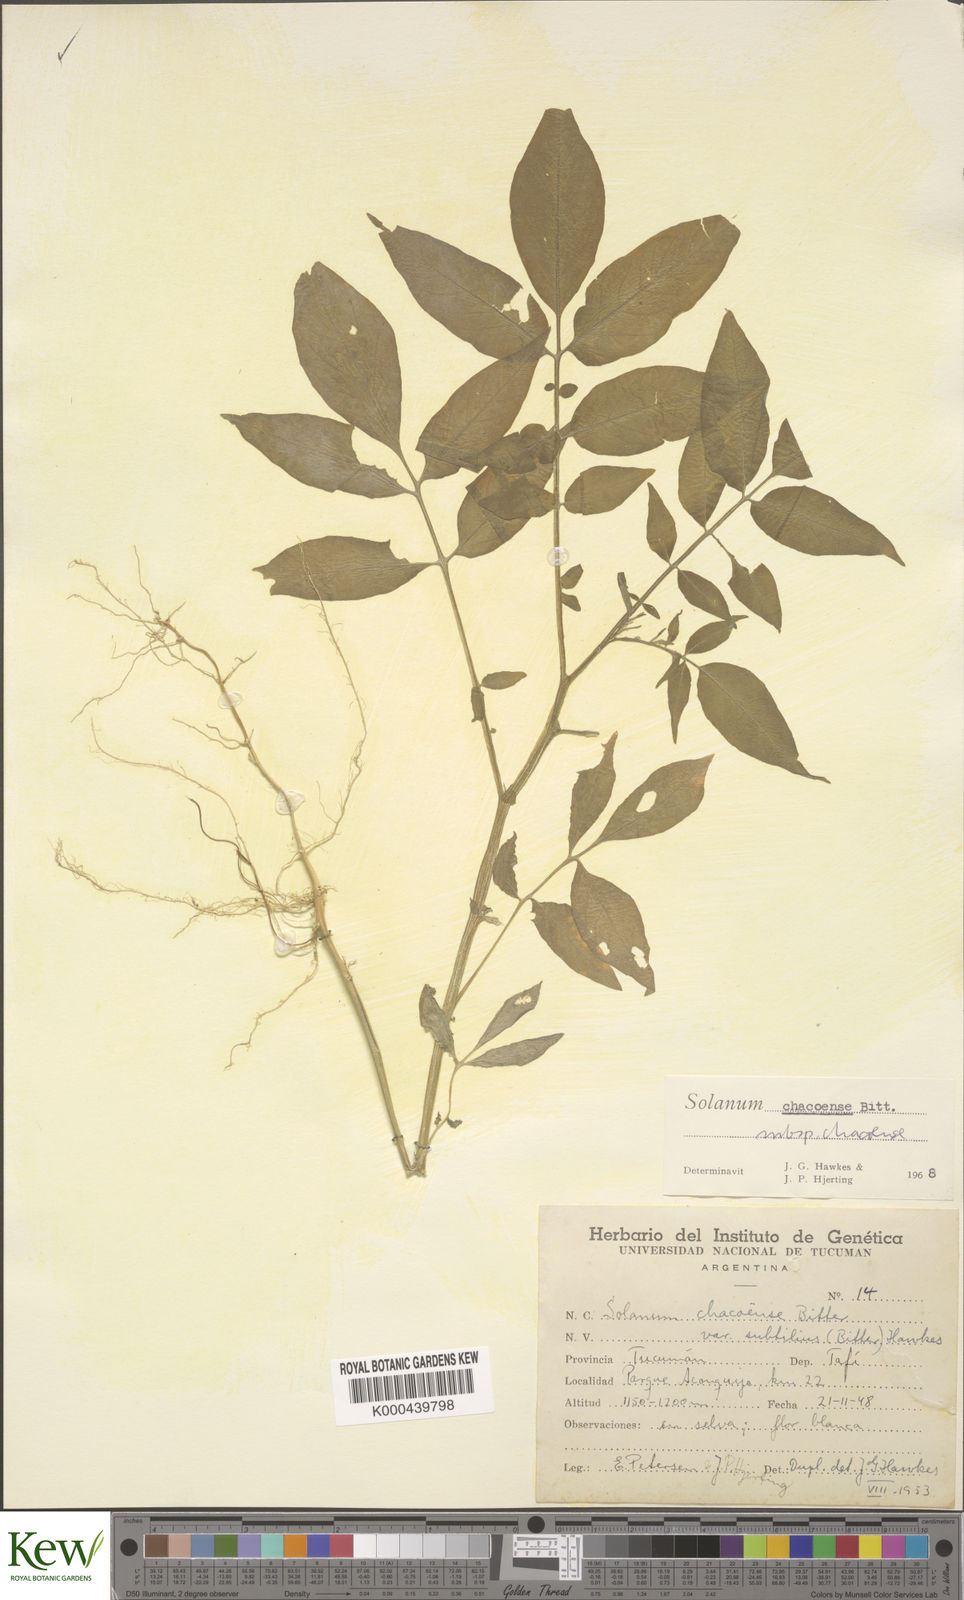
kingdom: Plantae
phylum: Tracheophyta
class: Magnoliopsida
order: Solanales
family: Solanaceae
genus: Solanum
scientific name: Solanum chacoense
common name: Chaco potato
